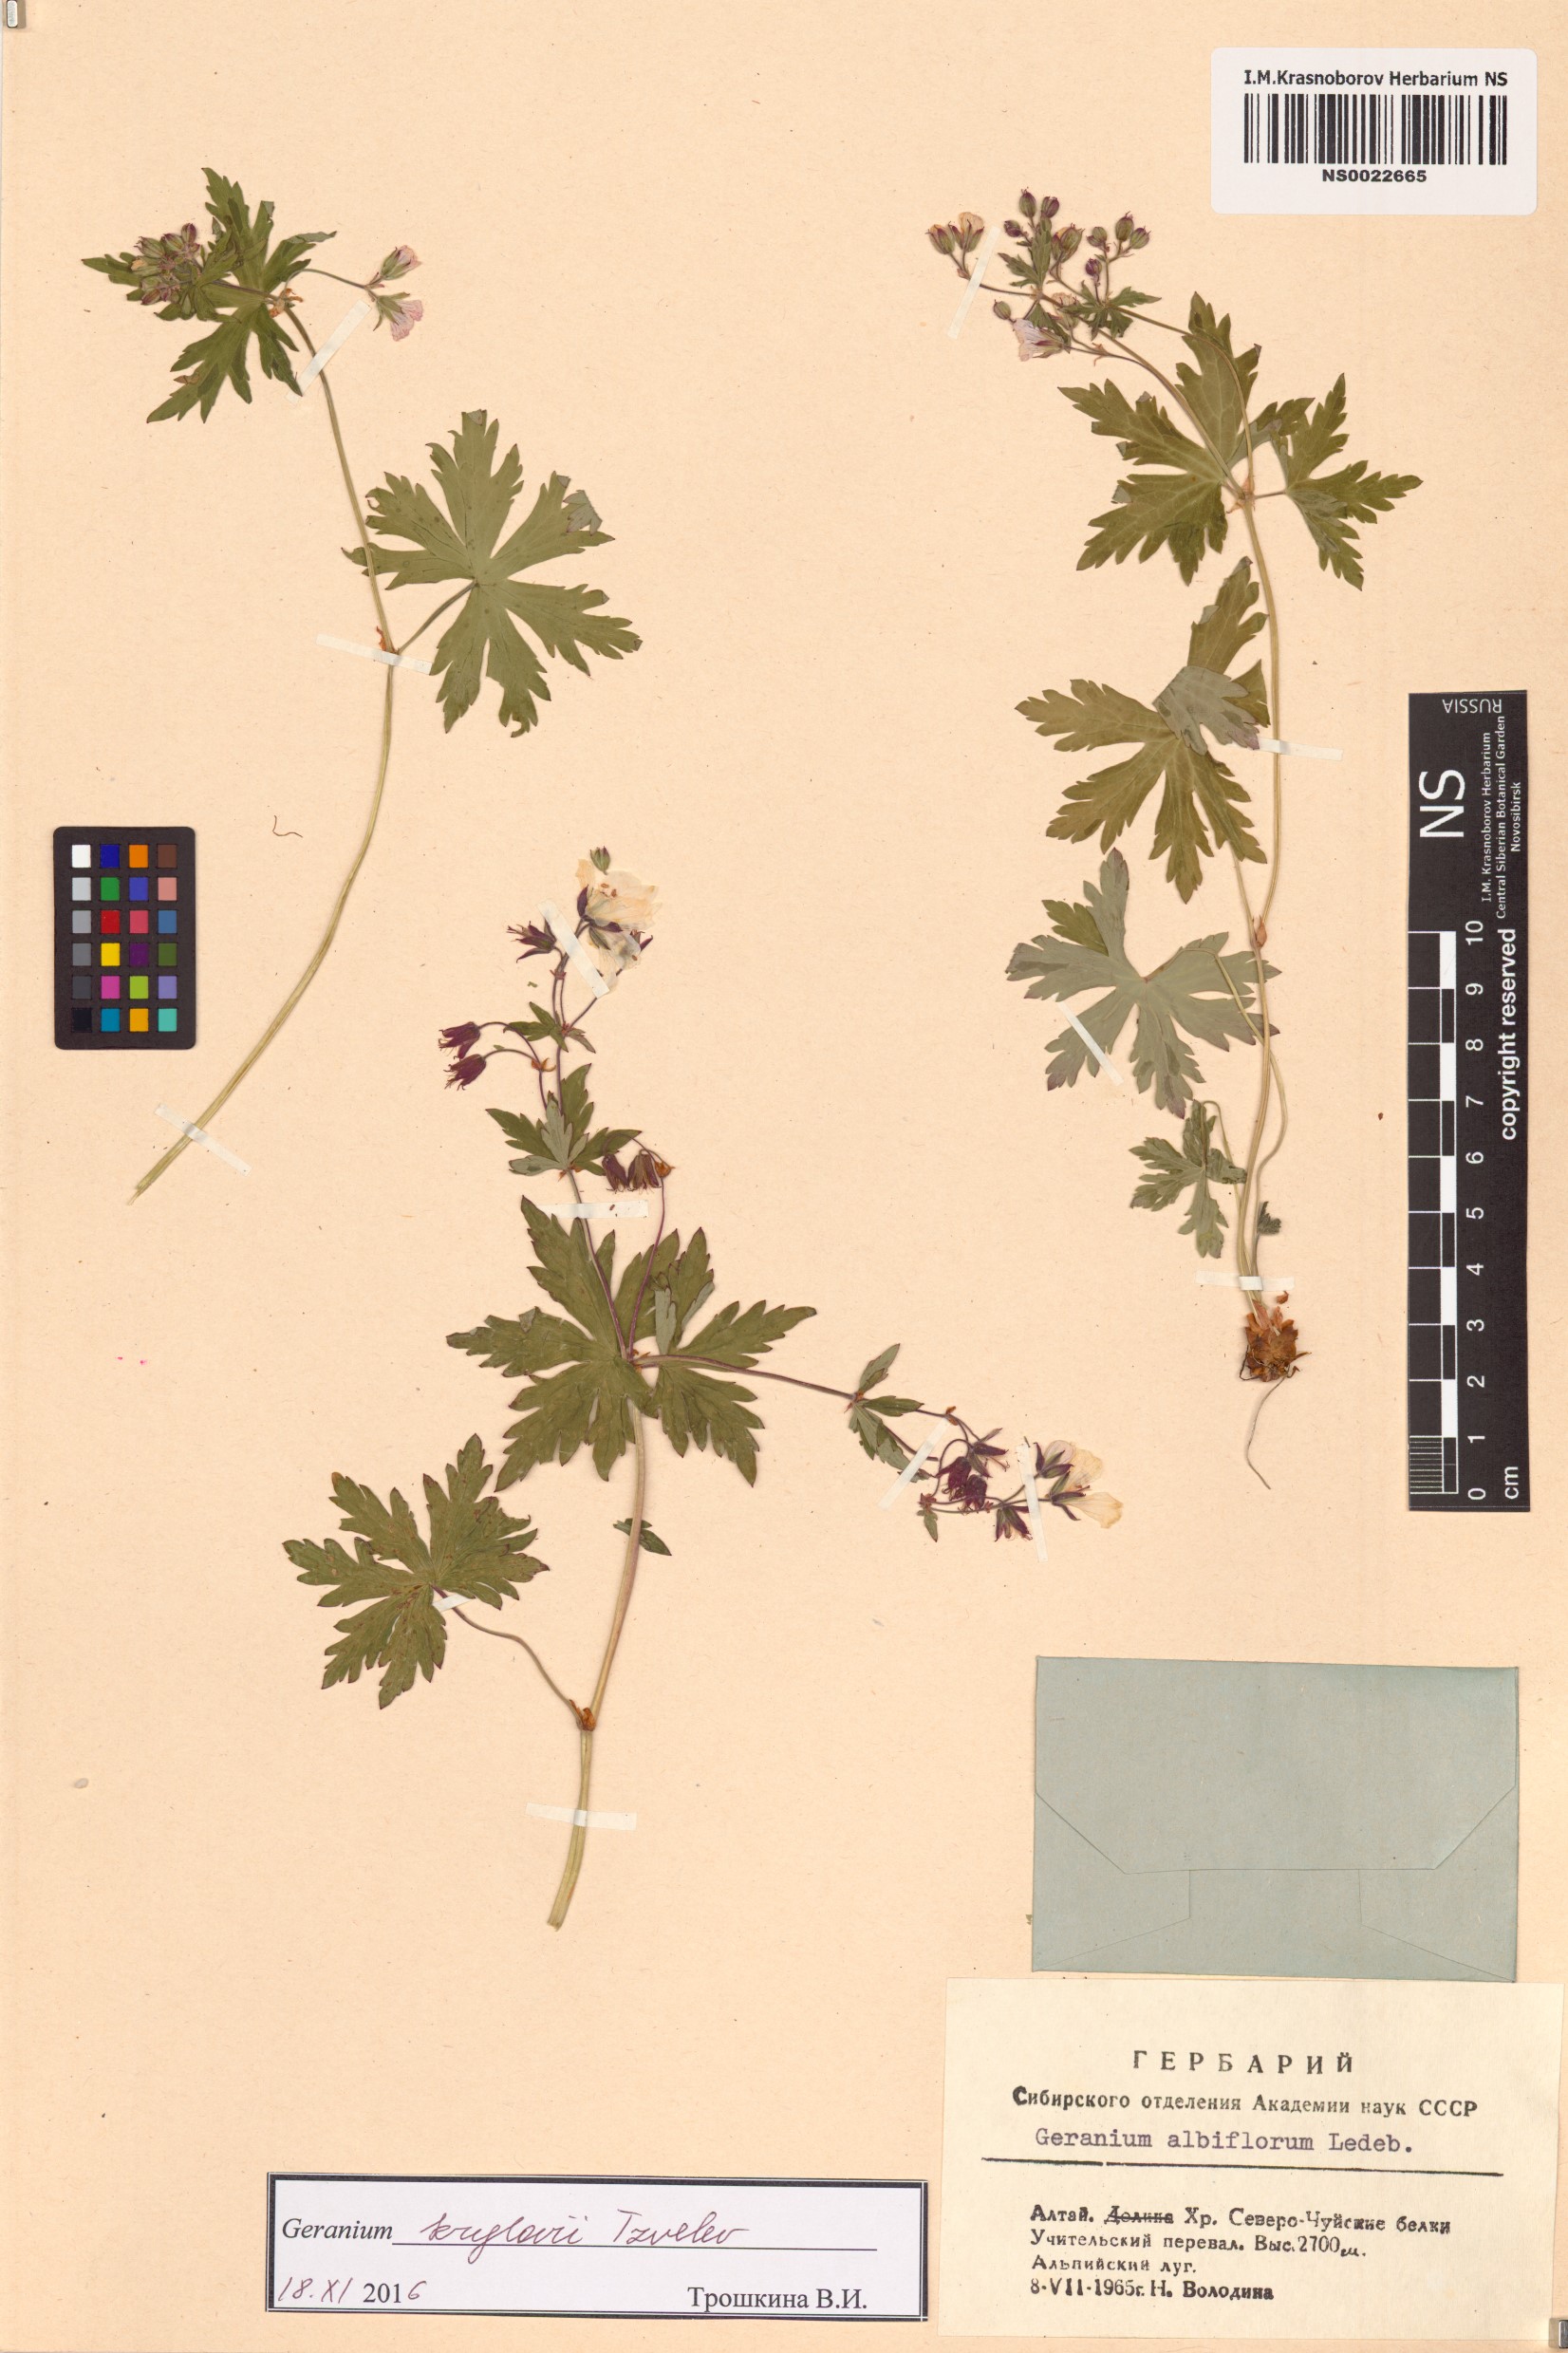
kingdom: Plantae
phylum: Tracheophyta
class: Magnoliopsida
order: Geraniales
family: Geraniaceae
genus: Geranium
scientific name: Geranium sylvaticum
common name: Wood crane's-bill
